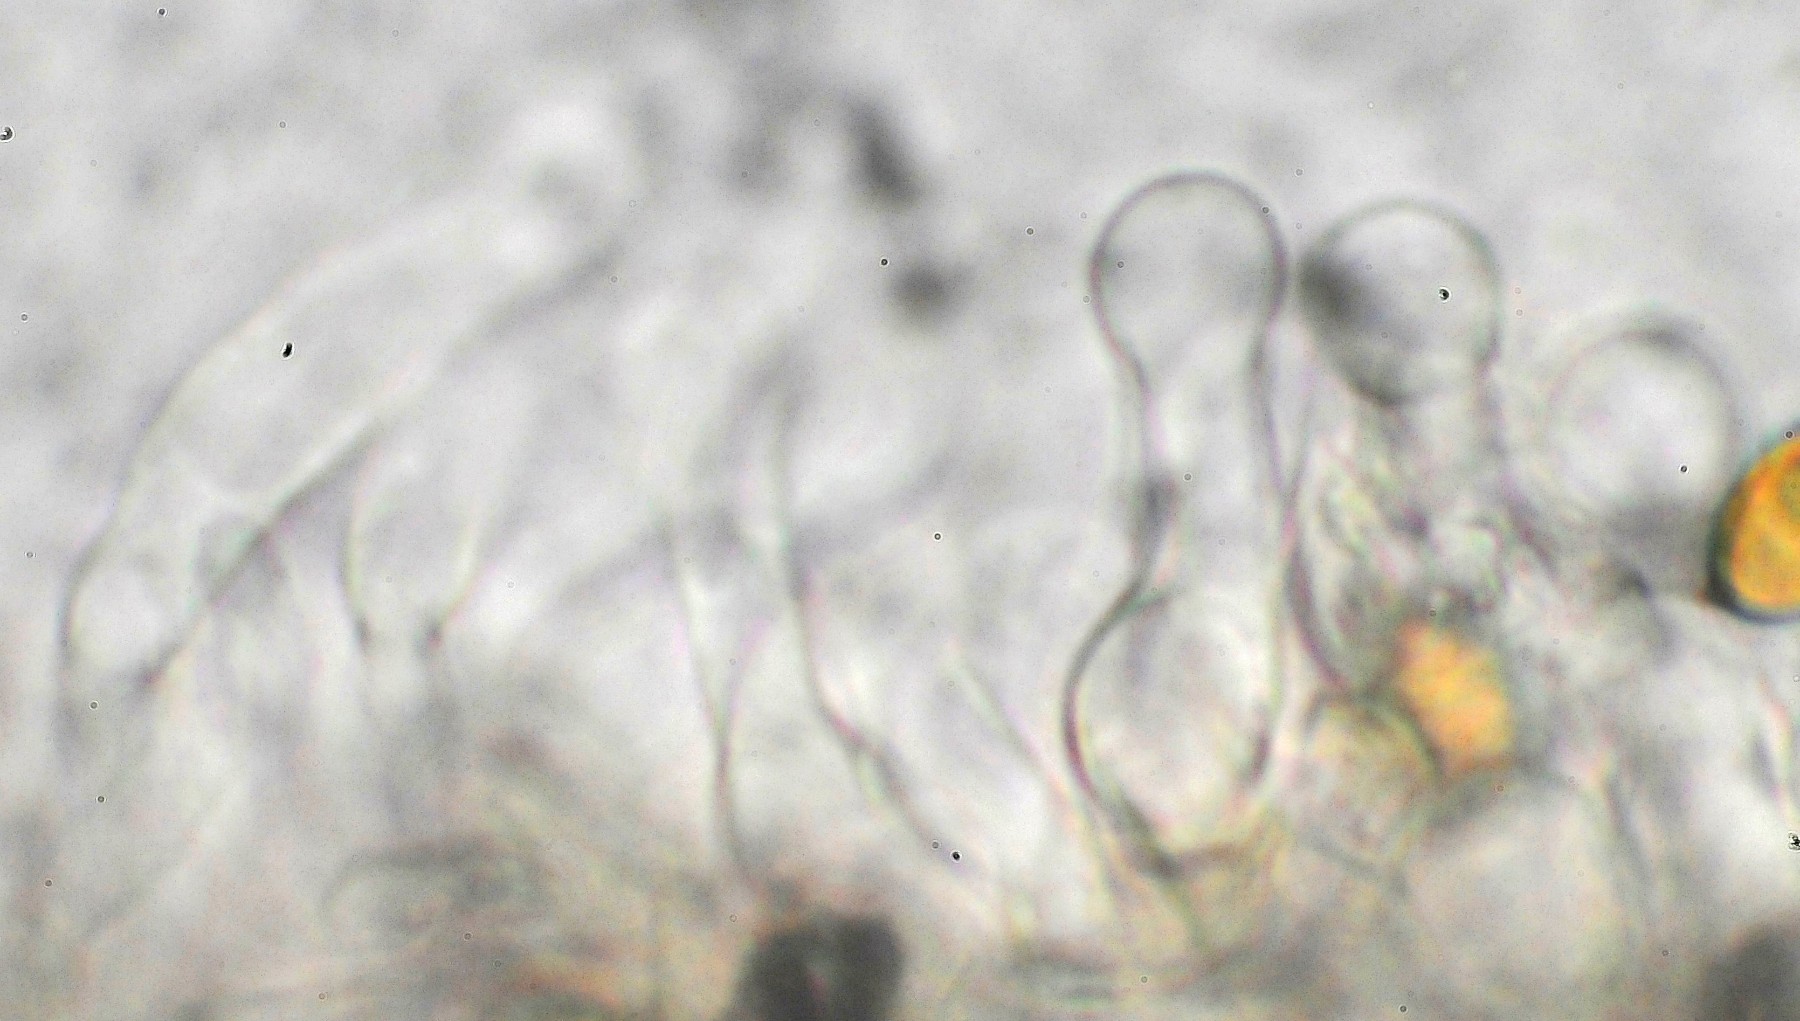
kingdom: Fungi
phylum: Basidiomycota
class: Agaricomycetes
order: Agaricales
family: Hymenogastraceae
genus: Galerina
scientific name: Galerina paludosa
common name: mose-hjelmhat
